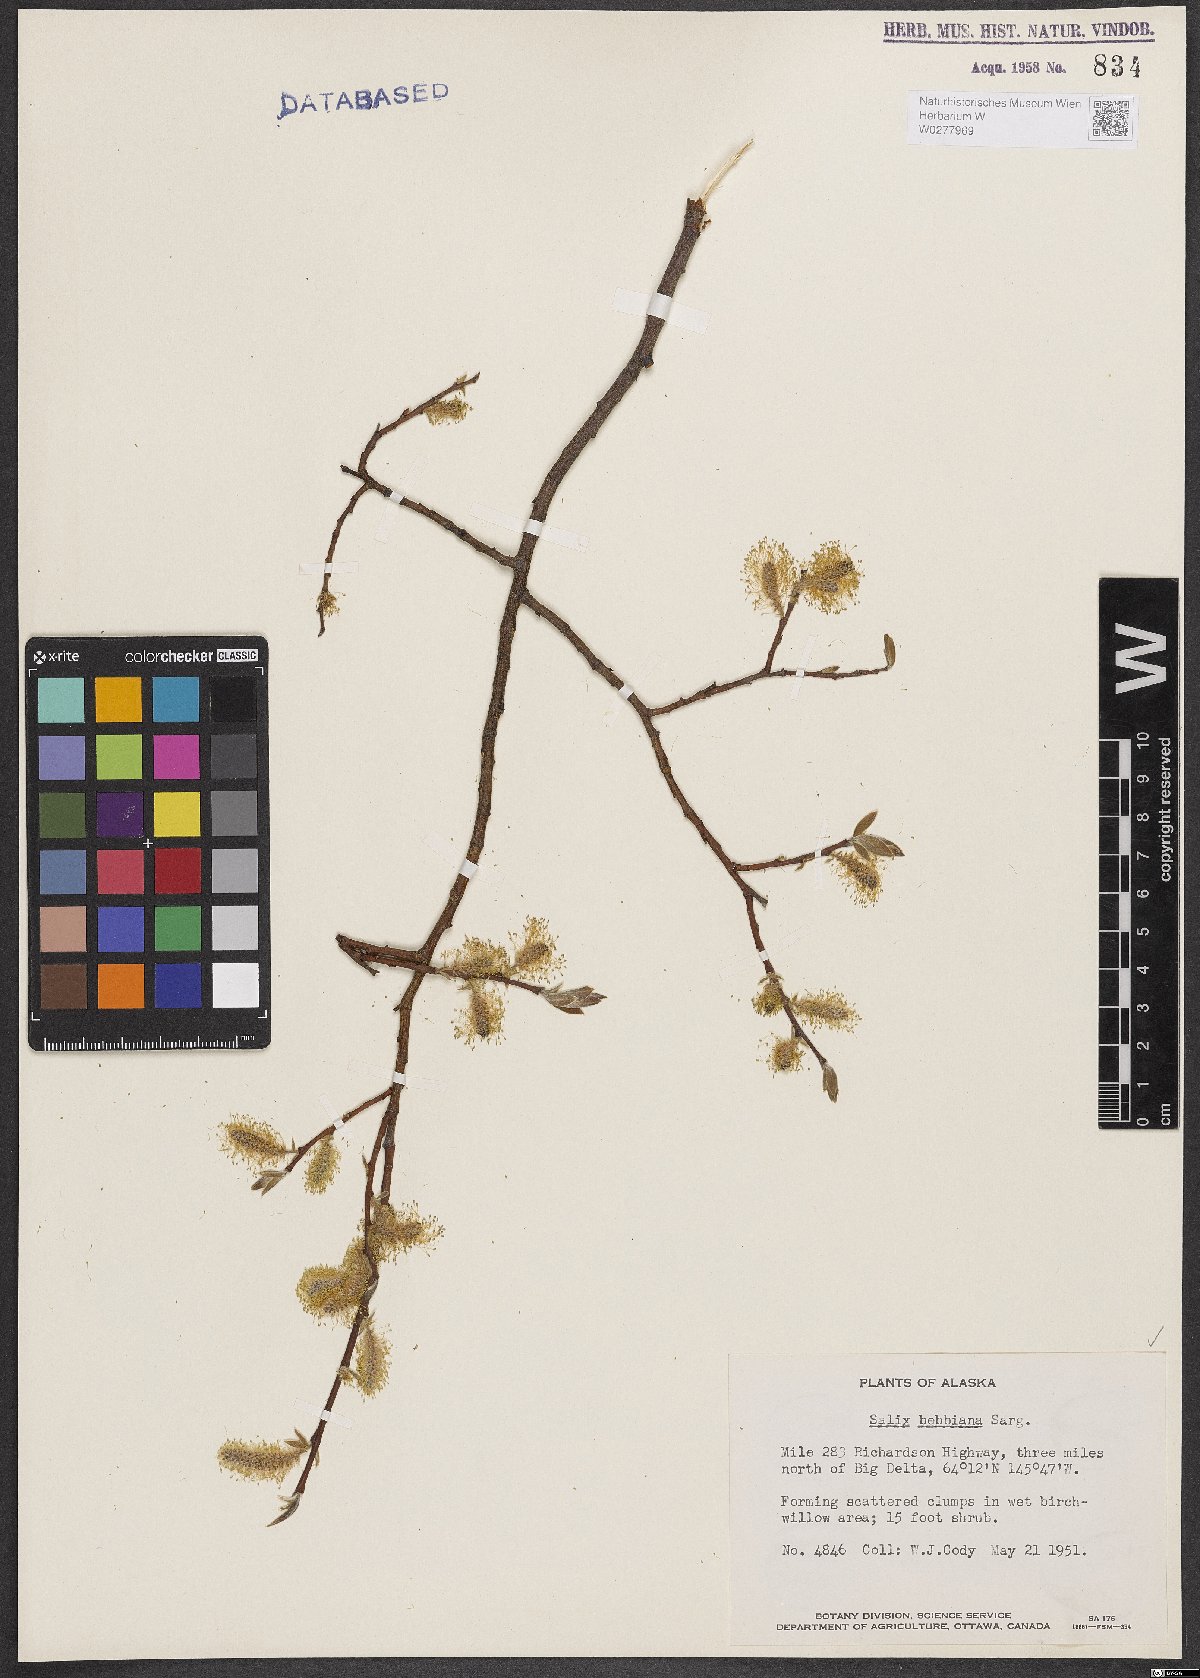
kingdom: Plantae
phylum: Tracheophyta
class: Magnoliopsida
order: Malpighiales
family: Salicaceae
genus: Salix
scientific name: Salix bebbiana
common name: Bebb's willow
